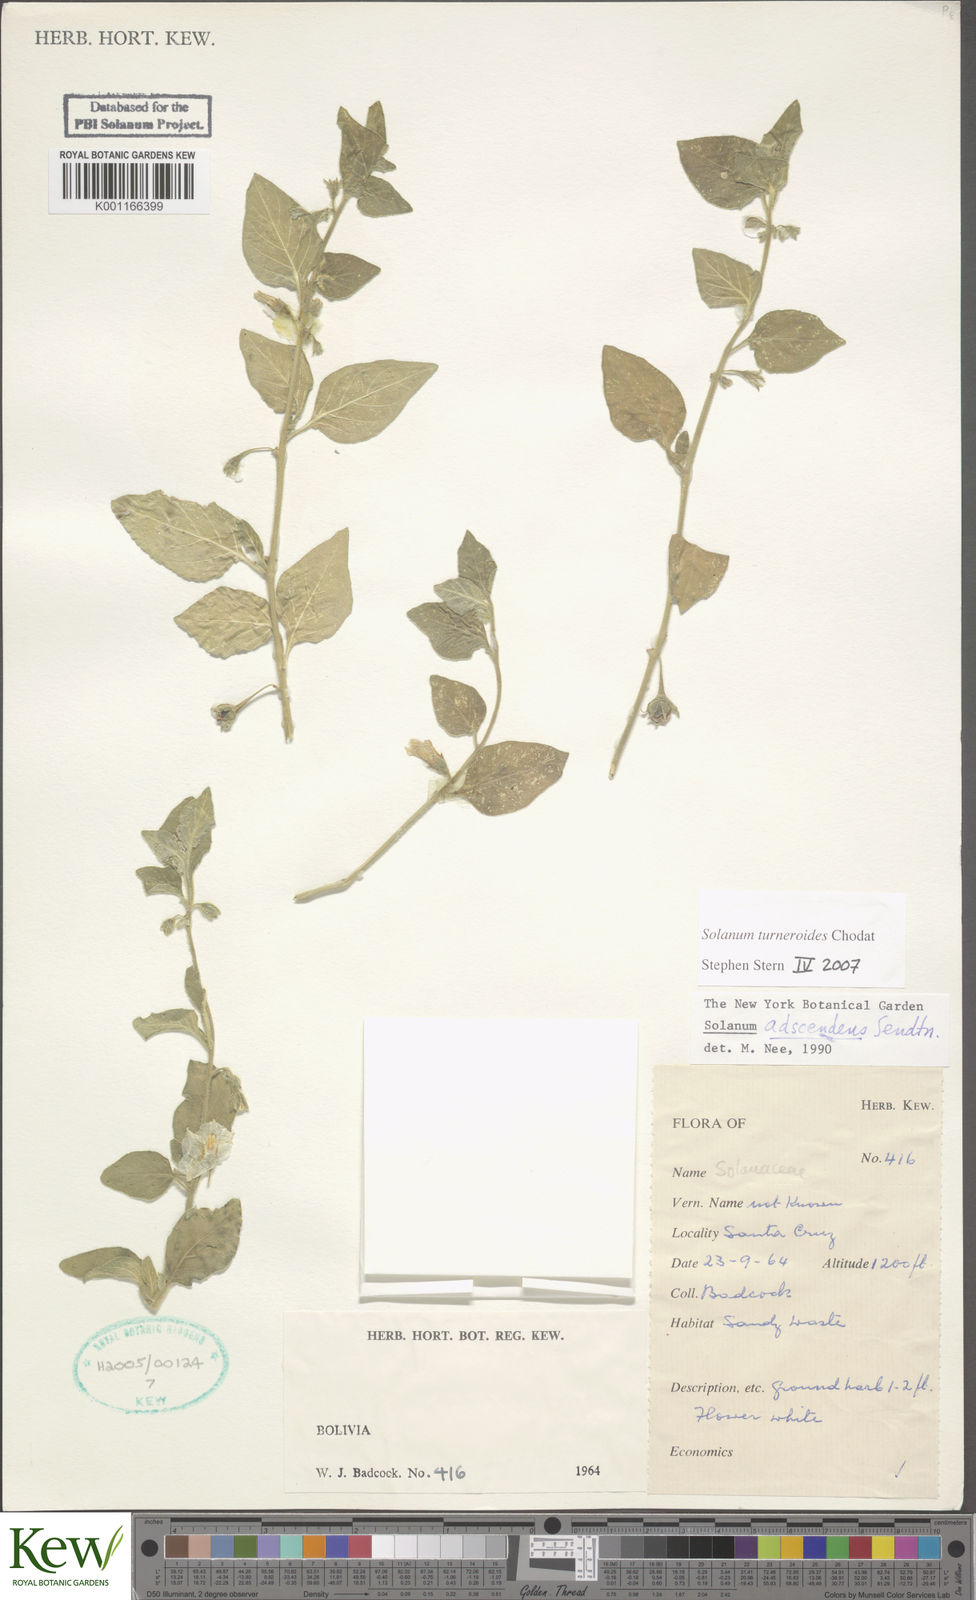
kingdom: Plantae
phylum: Tracheophyta
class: Magnoliopsida
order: Solanales
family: Solanaceae
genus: Solanum
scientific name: Solanum turneroides
